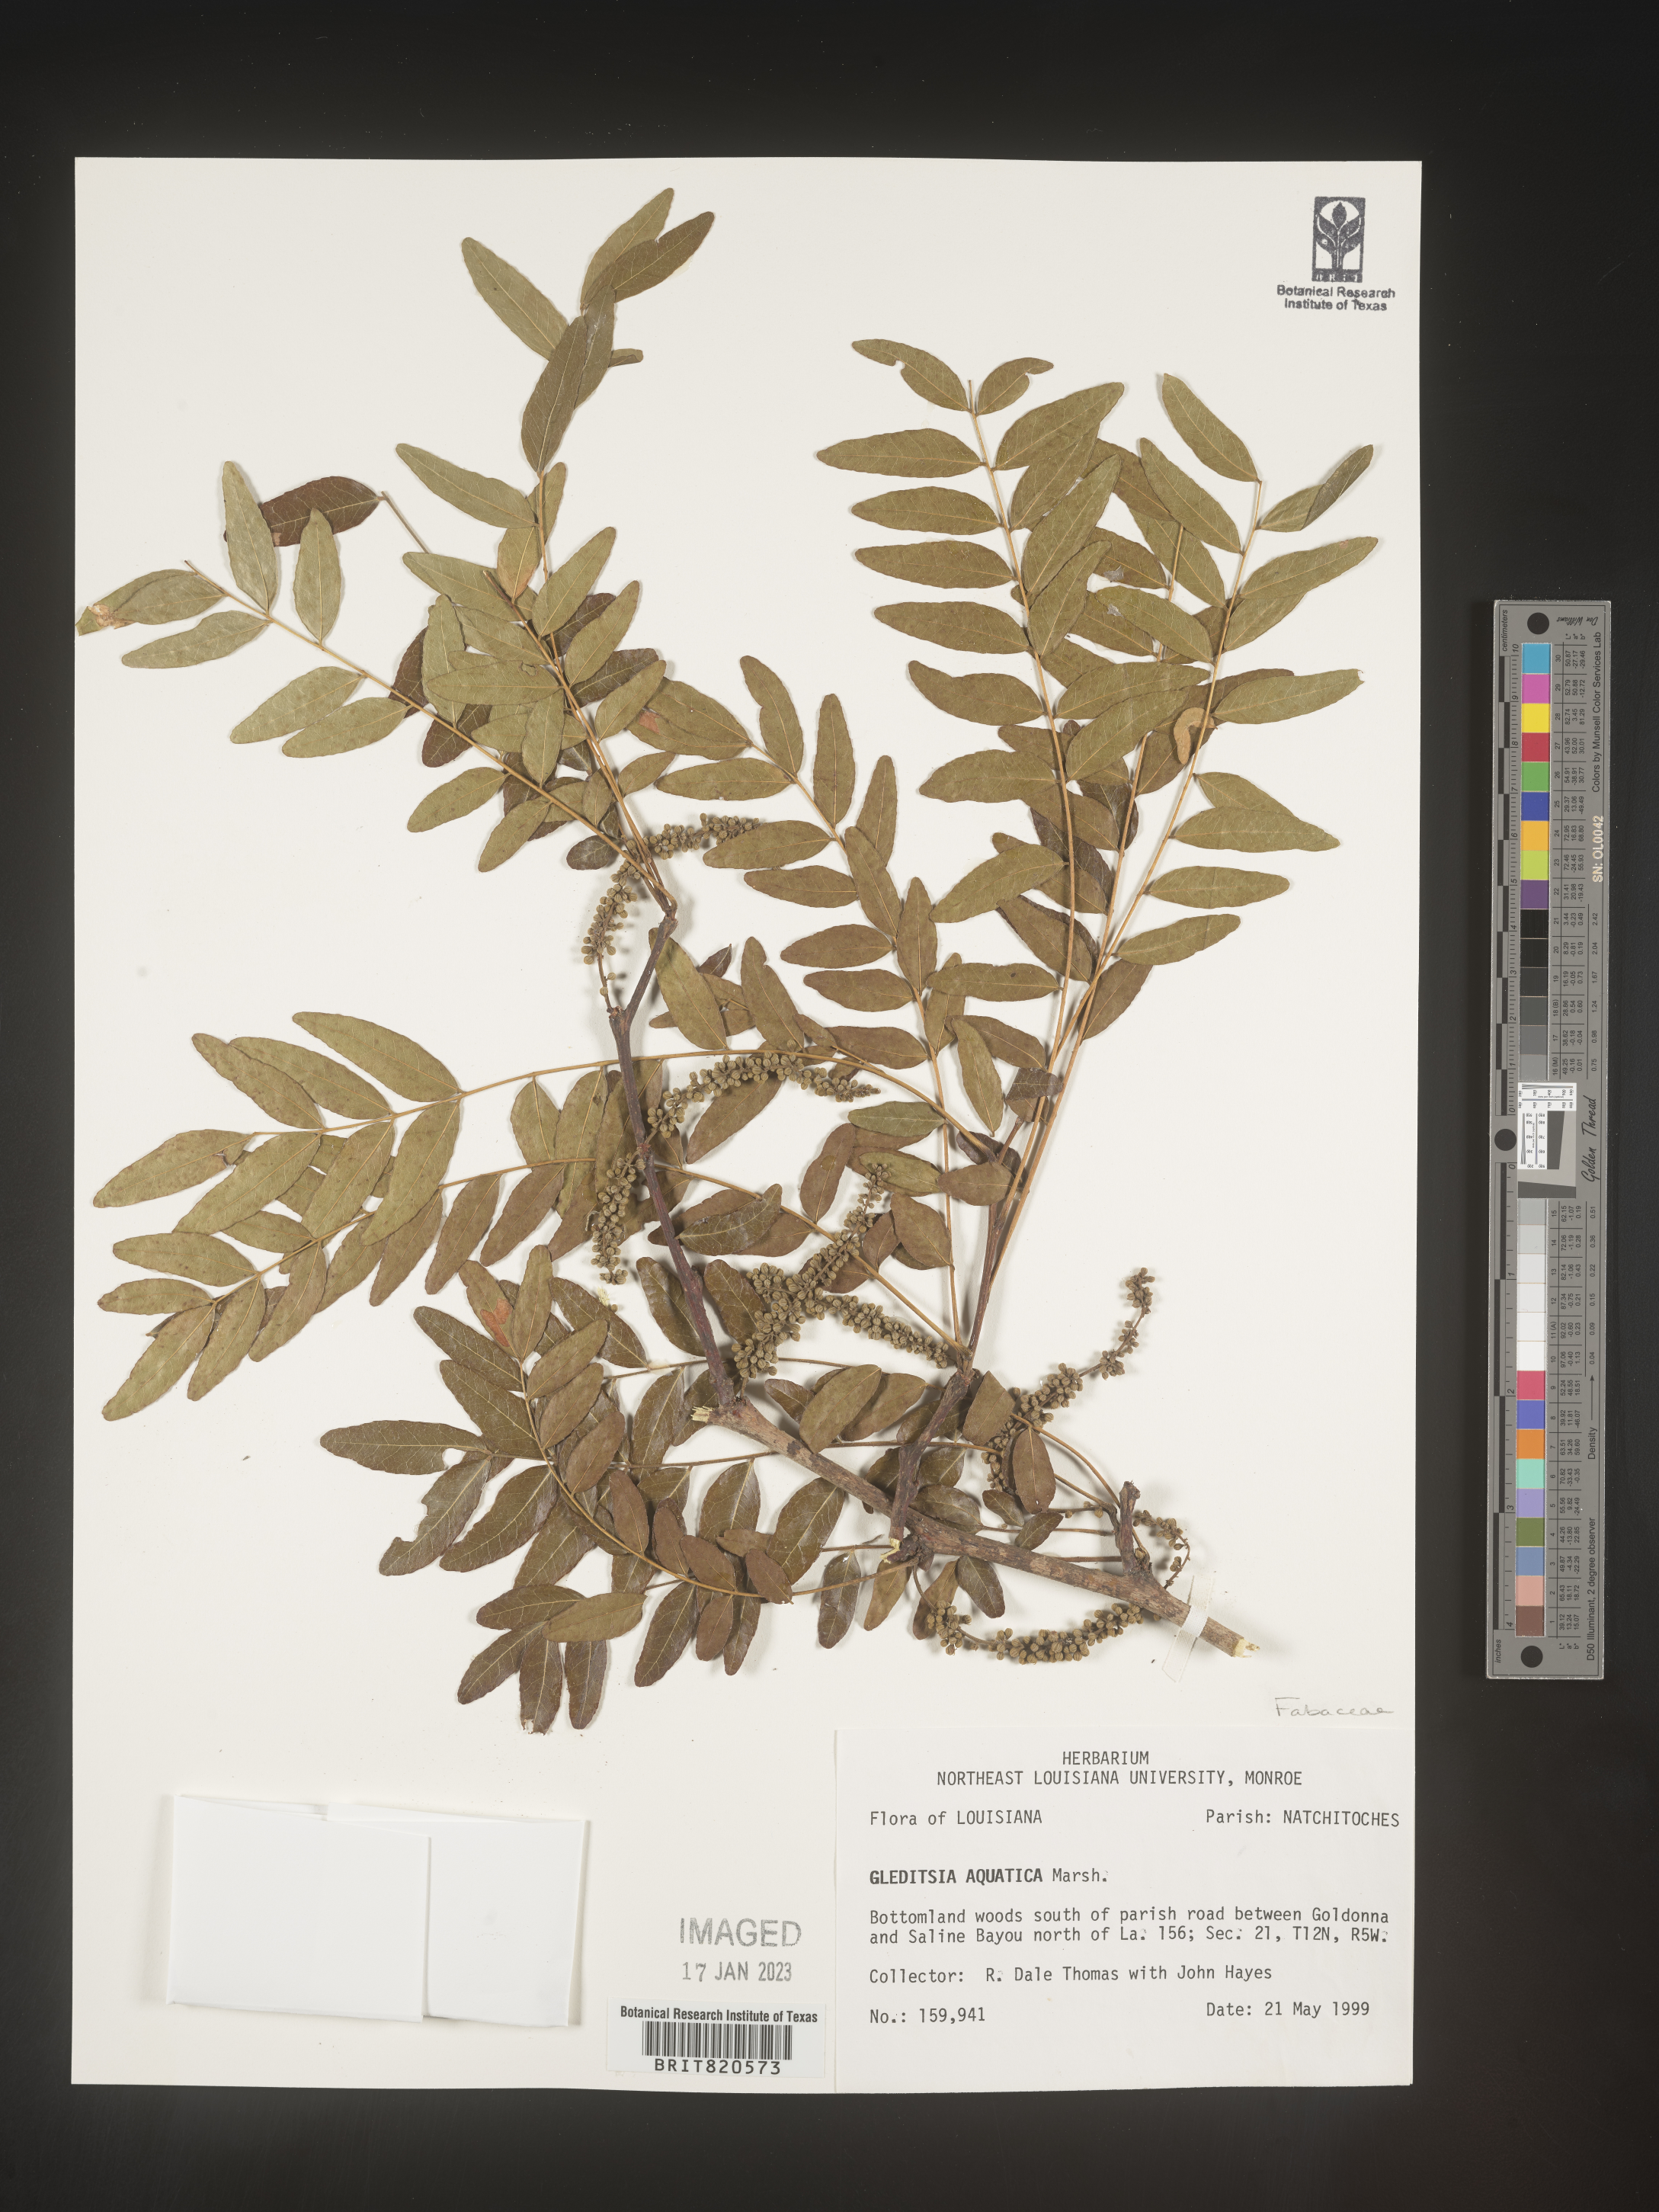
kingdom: Plantae
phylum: Tracheophyta
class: Magnoliopsida
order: Fabales
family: Fabaceae
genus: Gleditsia
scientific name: Gleditsia aquatica
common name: Swamp-locust
